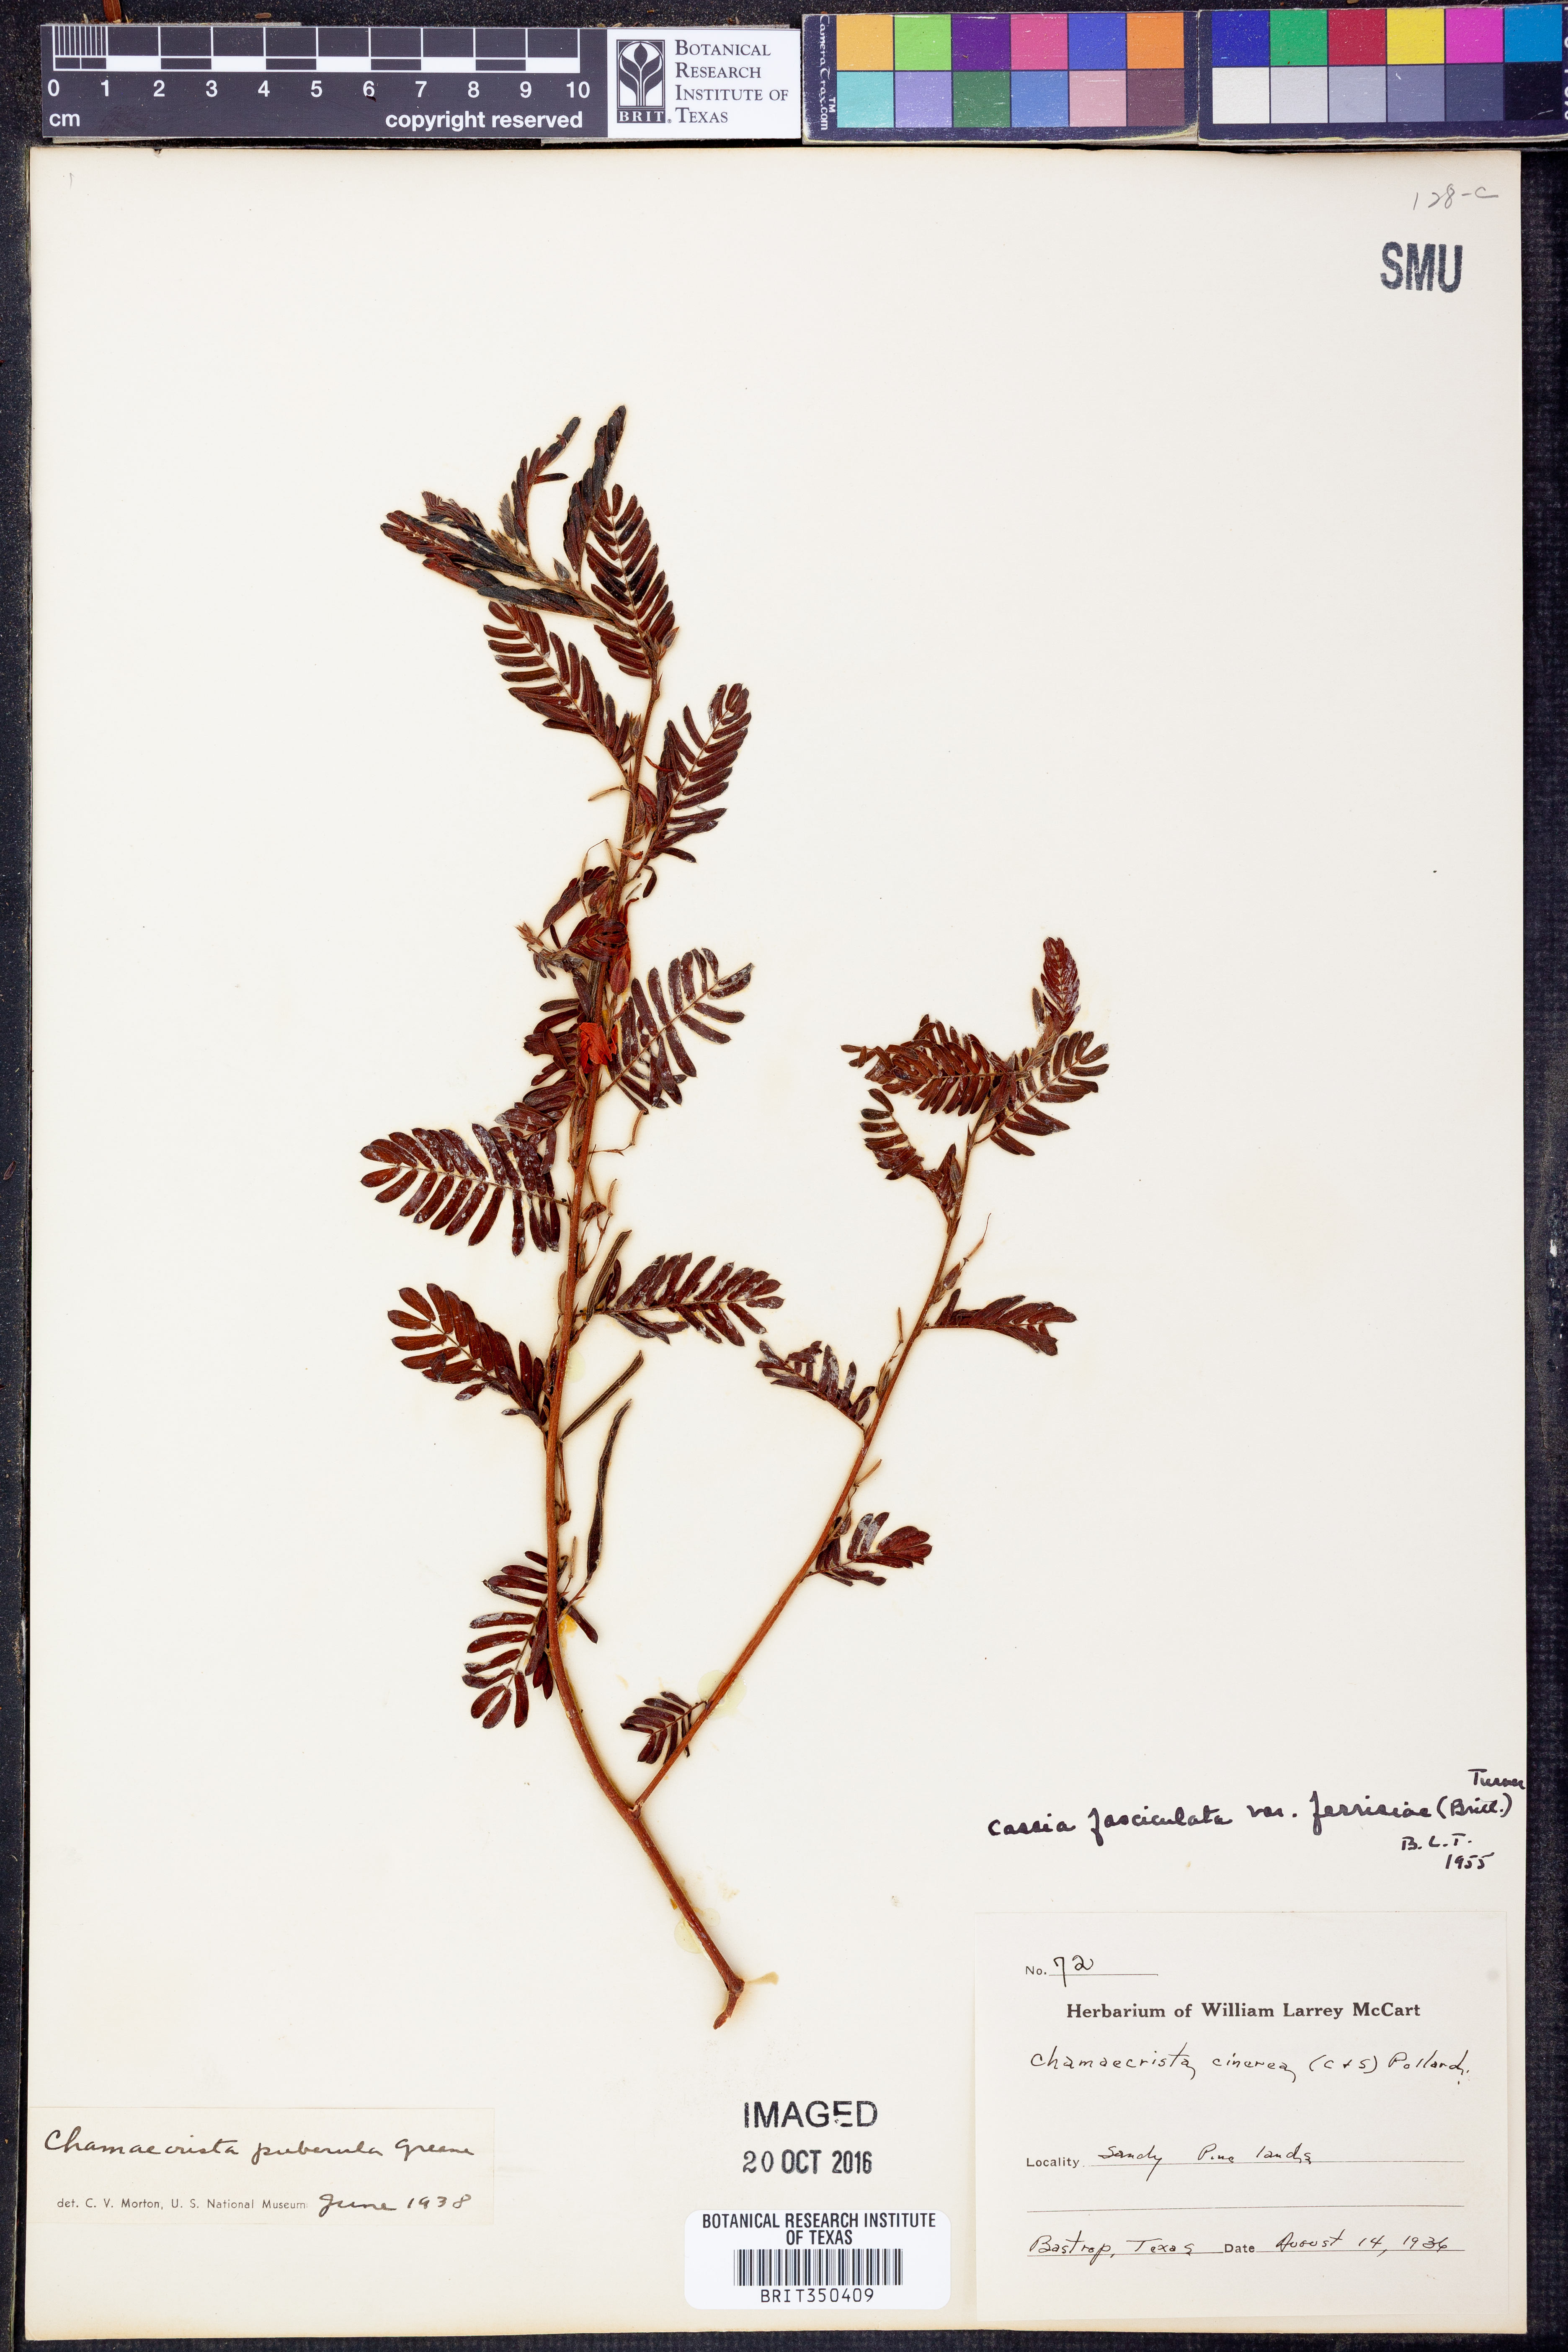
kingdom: Plantae
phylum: Tracheophyta
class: Magnoliopsida
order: Fabales
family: Fabaceae
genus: Chamaecrista
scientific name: Chamaecrista fasciculata
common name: Golden cassia
